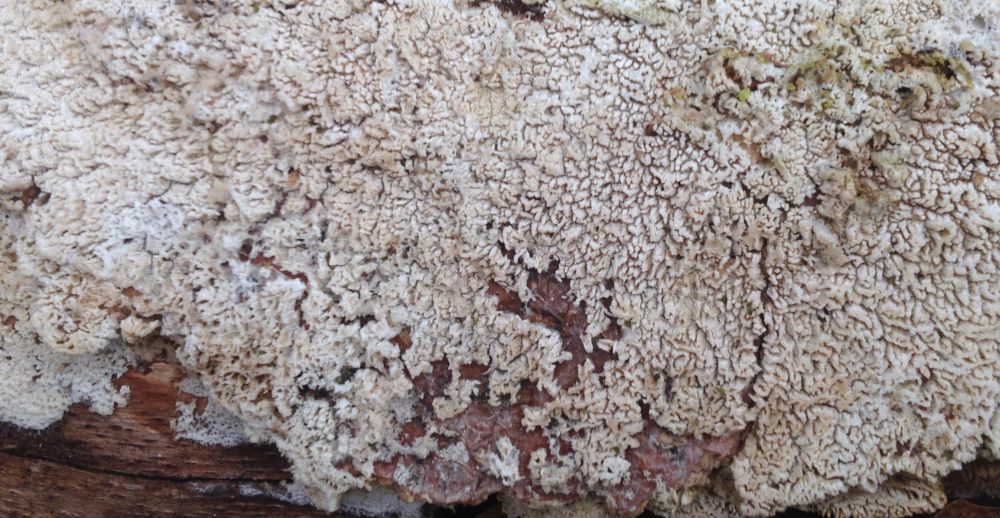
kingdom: Fungi
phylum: Basidiomycota
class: Agaricomycetes
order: Hymenochaetales
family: Schizoporaceae
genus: Schizopora
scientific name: Schizopora paradoxa
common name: hvid tandsvamp
